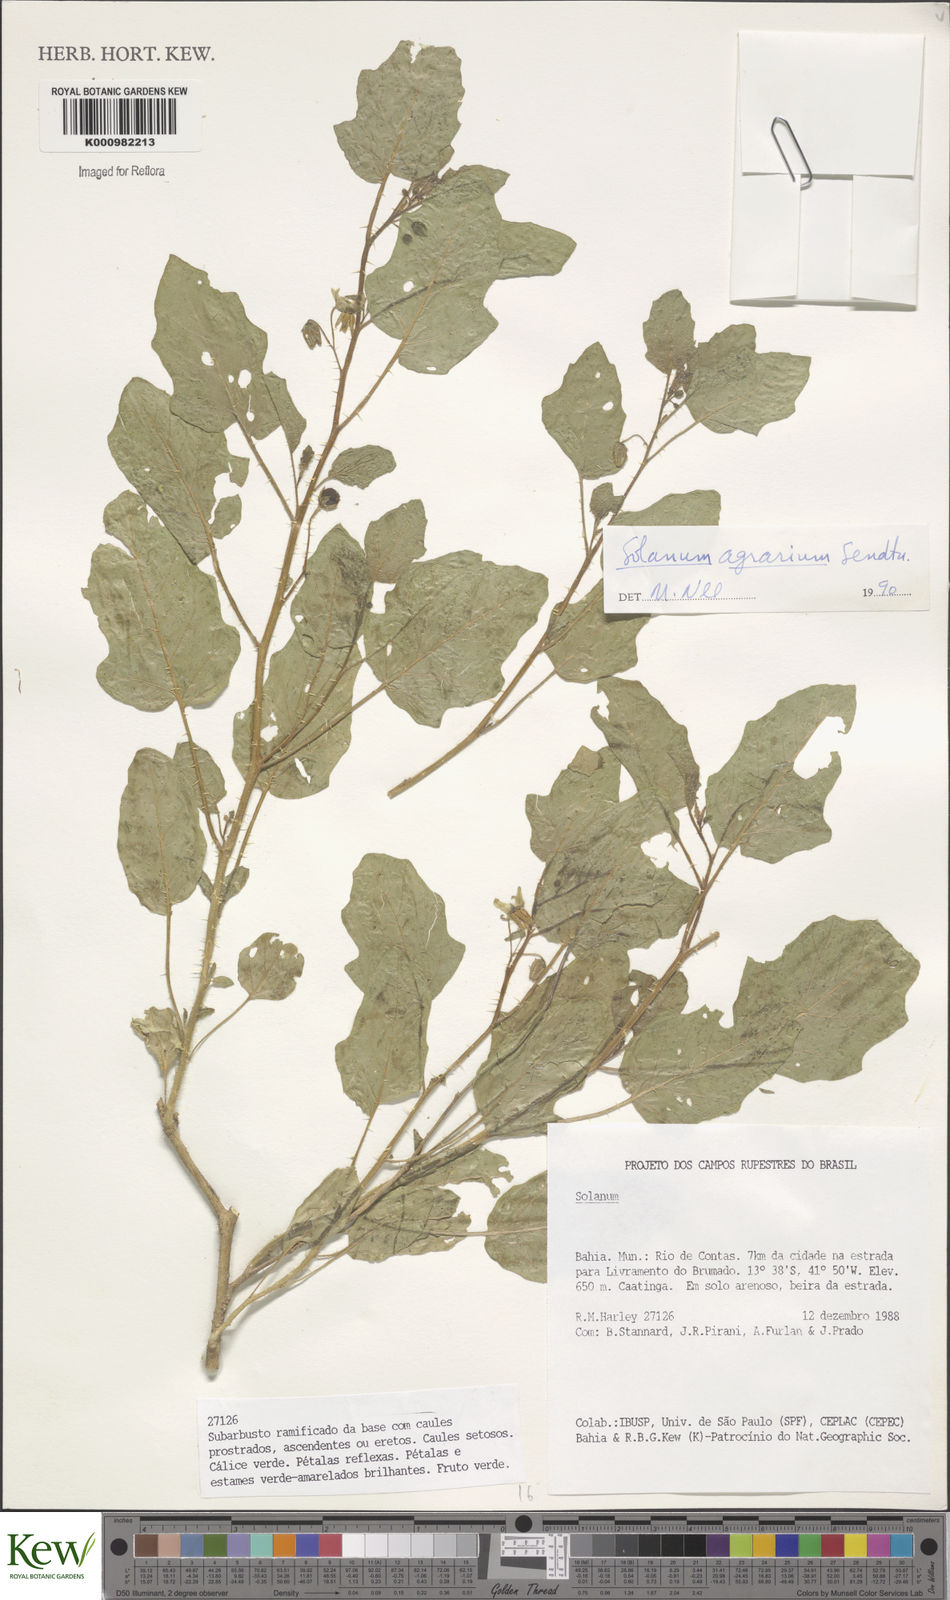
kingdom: Plantae
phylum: Tracheophyta
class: Magnoliopsida
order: Solanales
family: Solanaceae
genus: Solanum
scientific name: Solanum agrarium
